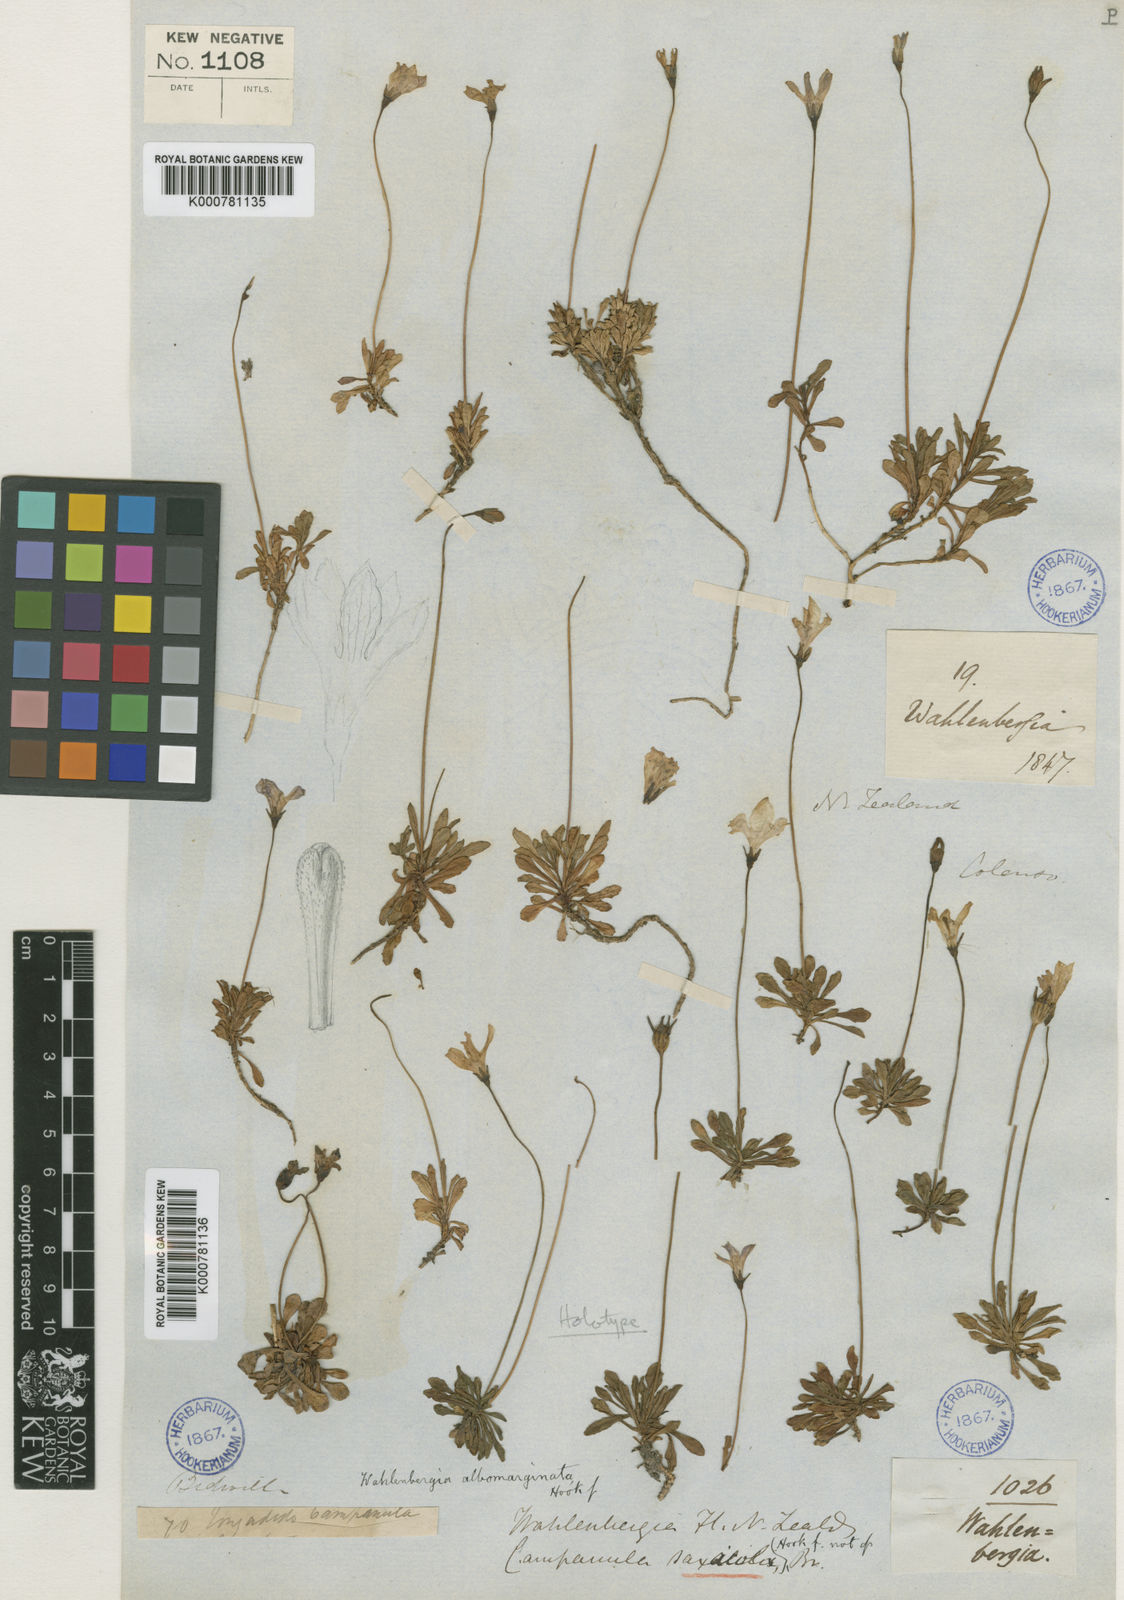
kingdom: Plantae
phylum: Tracheophyta
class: Magnoliopsida
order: Asterales
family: Campanulaceae
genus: Wahlenbergia
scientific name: Wahlenbergia albomarginata
